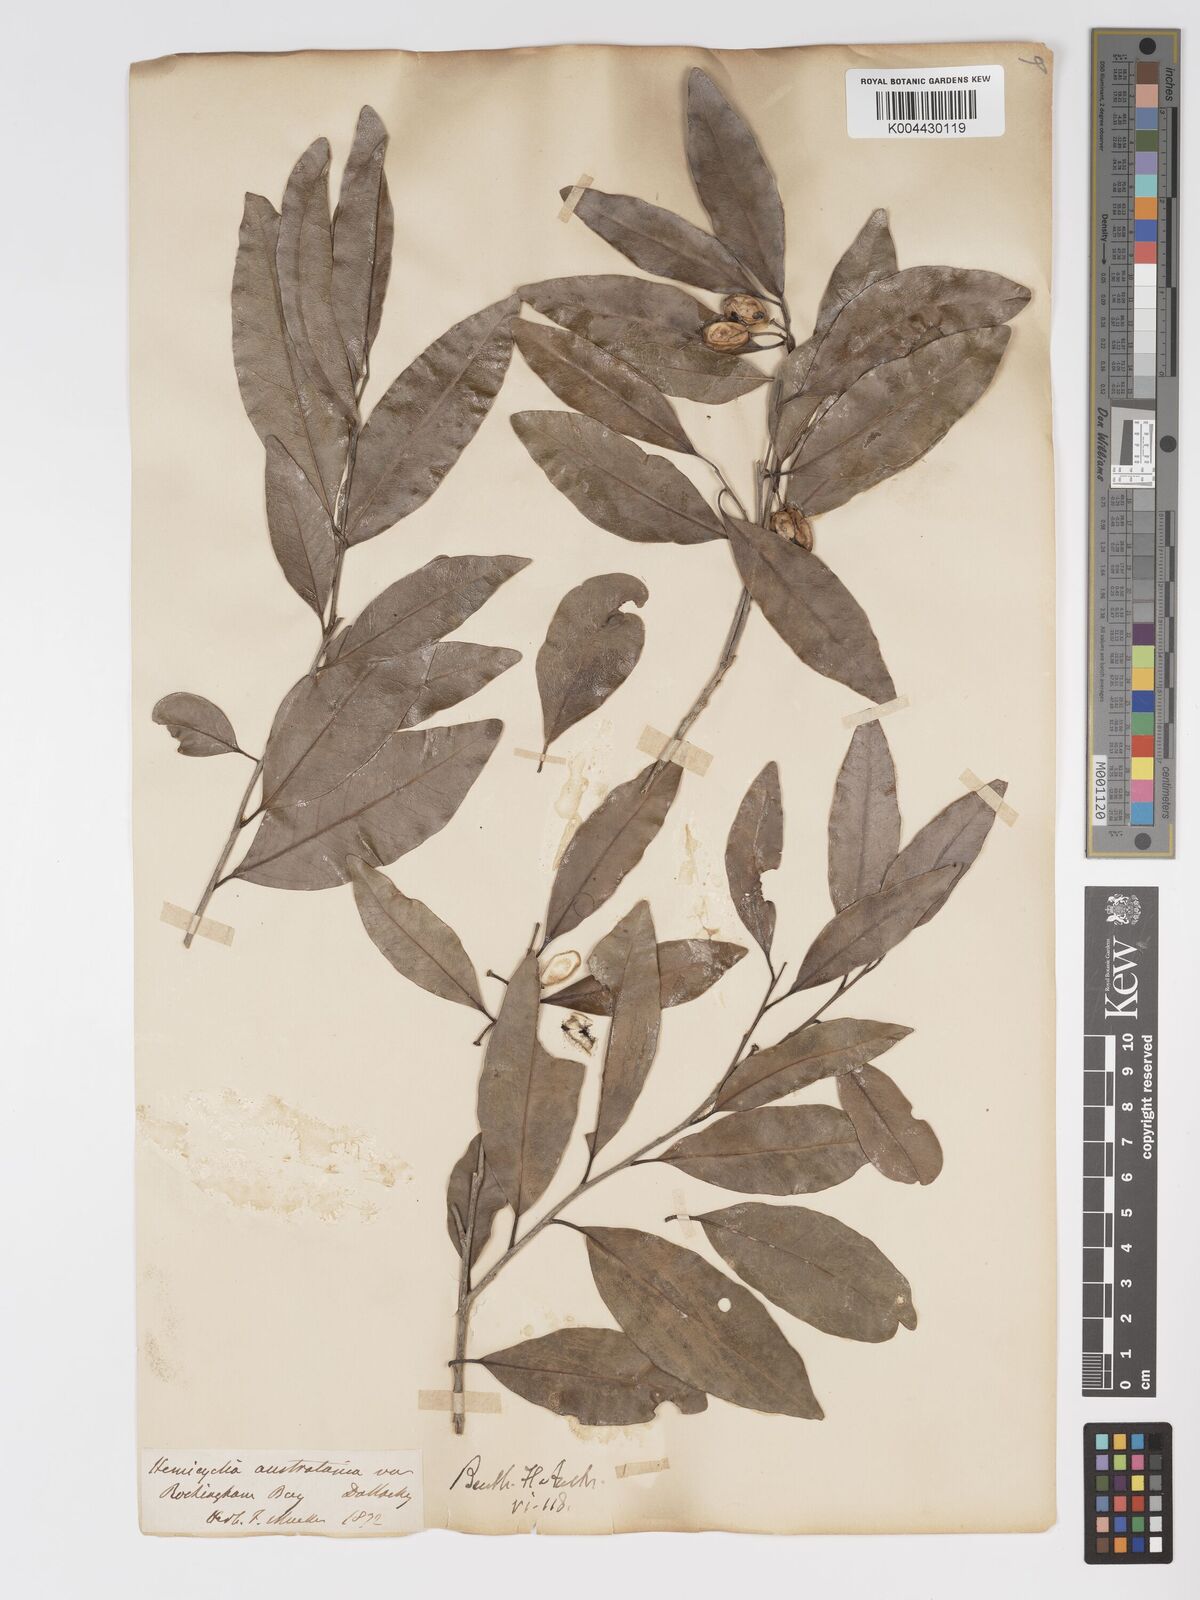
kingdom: Plantae
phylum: Tracheophyta
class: Magnoliopsida
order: Malpighiales
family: Putranjivaceae
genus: Drypetes
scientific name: Drypetes deplanchei
